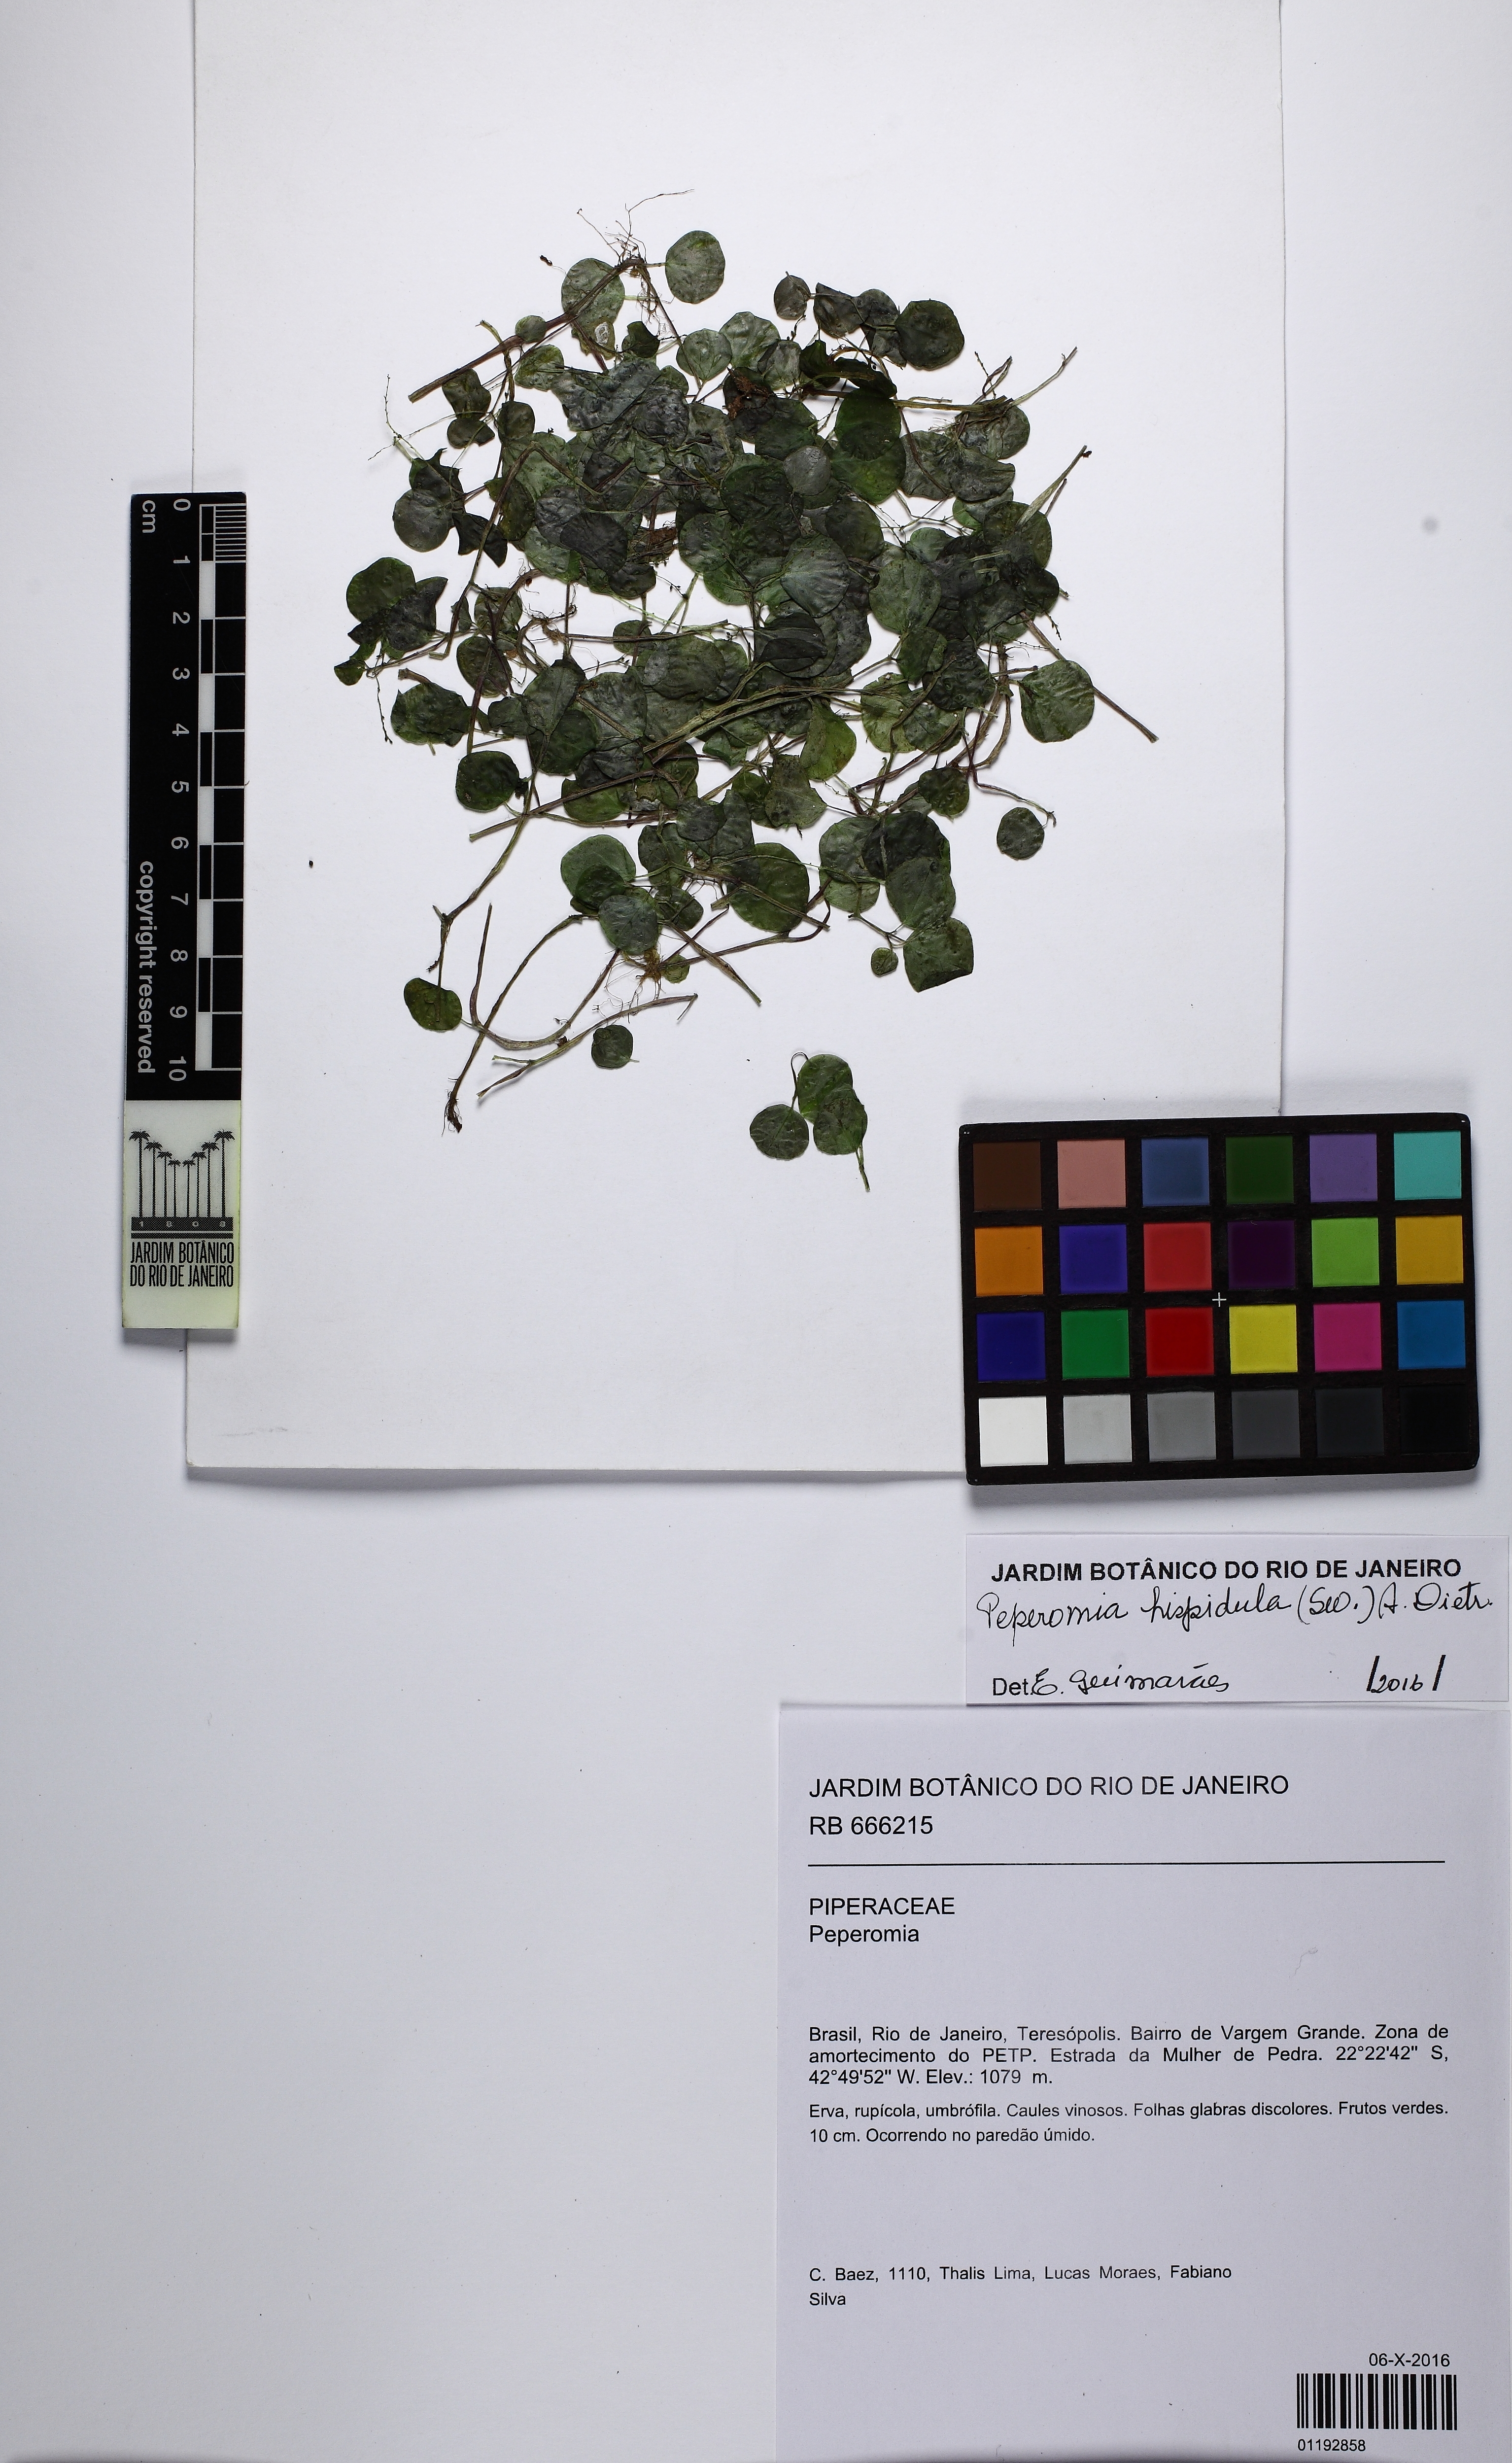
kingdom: Plantae
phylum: Tracheophyta
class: Magnoliopsida
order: Piperales
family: Piperaceae
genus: Peperomia
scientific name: Peperomia hispidula
